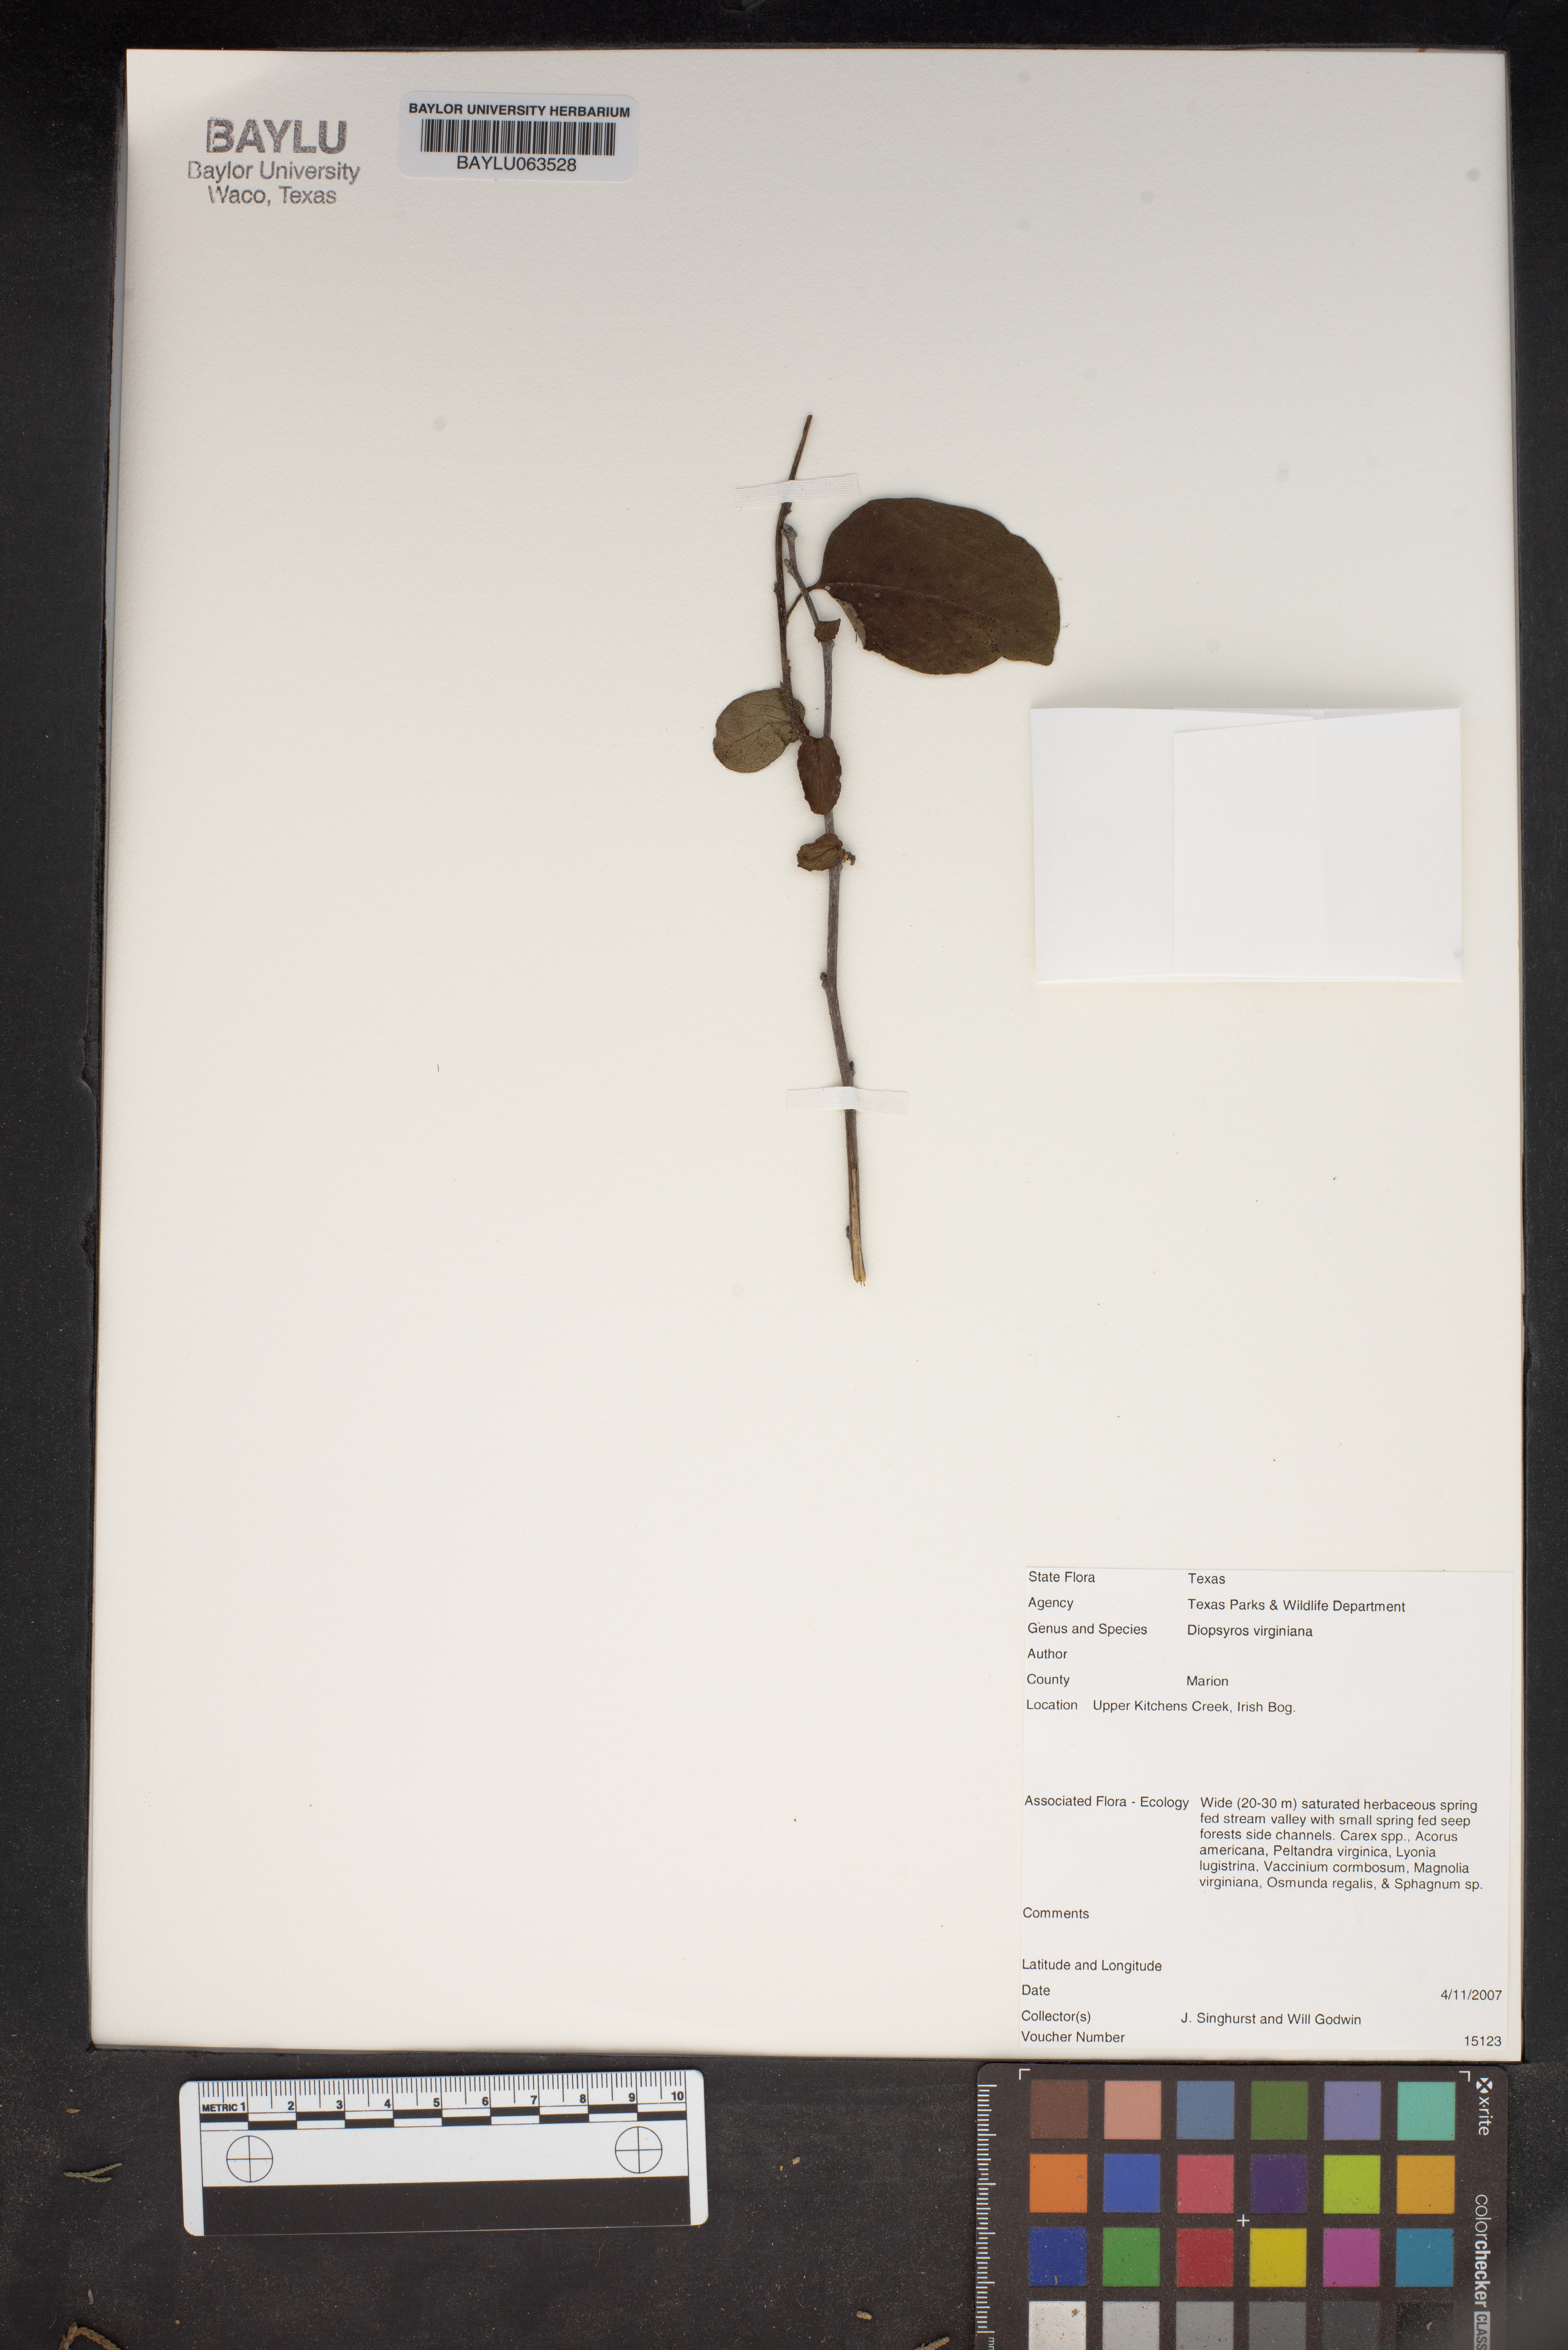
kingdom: Plantae
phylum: Tracheophyta
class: Magnoliopsida
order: Ericales
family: Ebenaceae
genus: Diospyros
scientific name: Diospyros virginiana
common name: Persimmon
